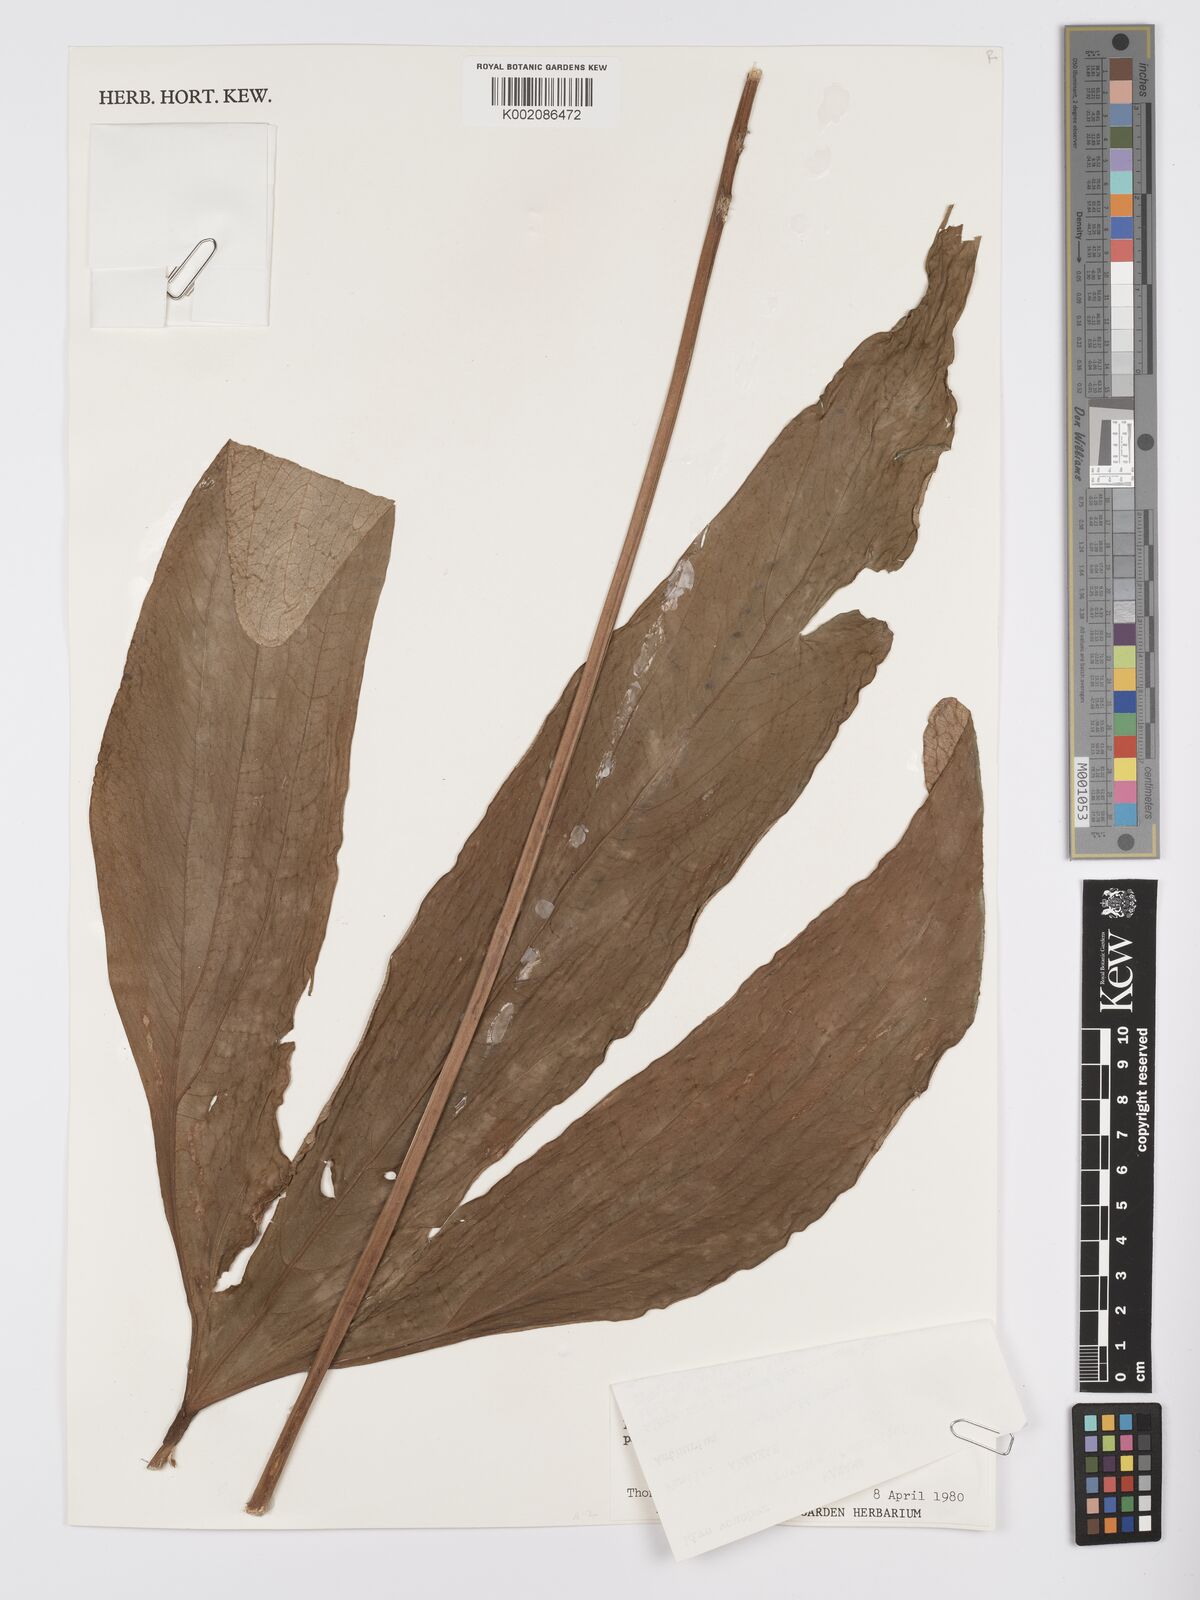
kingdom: Plantae
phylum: Tracheophyta
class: Liliopsida
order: Alismatales
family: Araceae
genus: Anthurium
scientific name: Anthurium madisonianum
